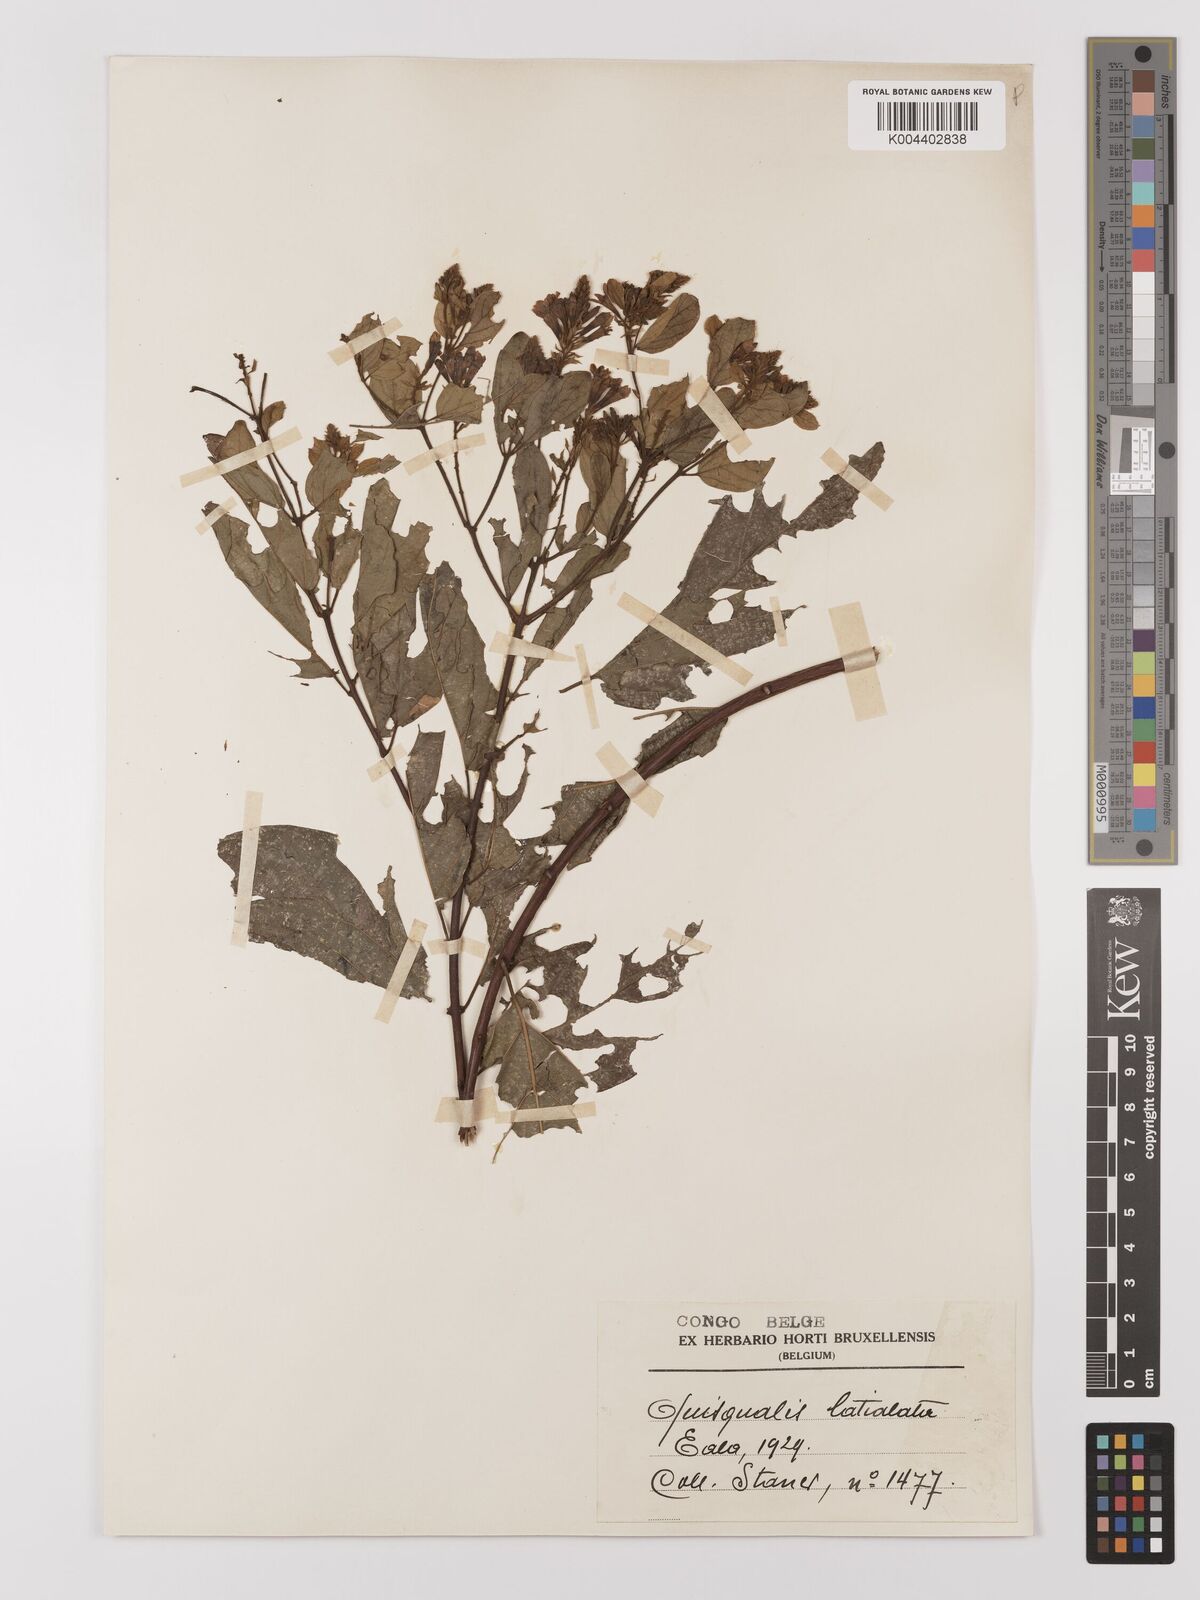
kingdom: Plantae
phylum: Tracheophyta
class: Magnoliopsida
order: Myrtales
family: Combretaceae
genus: Combretum
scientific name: Combretum latialatum
